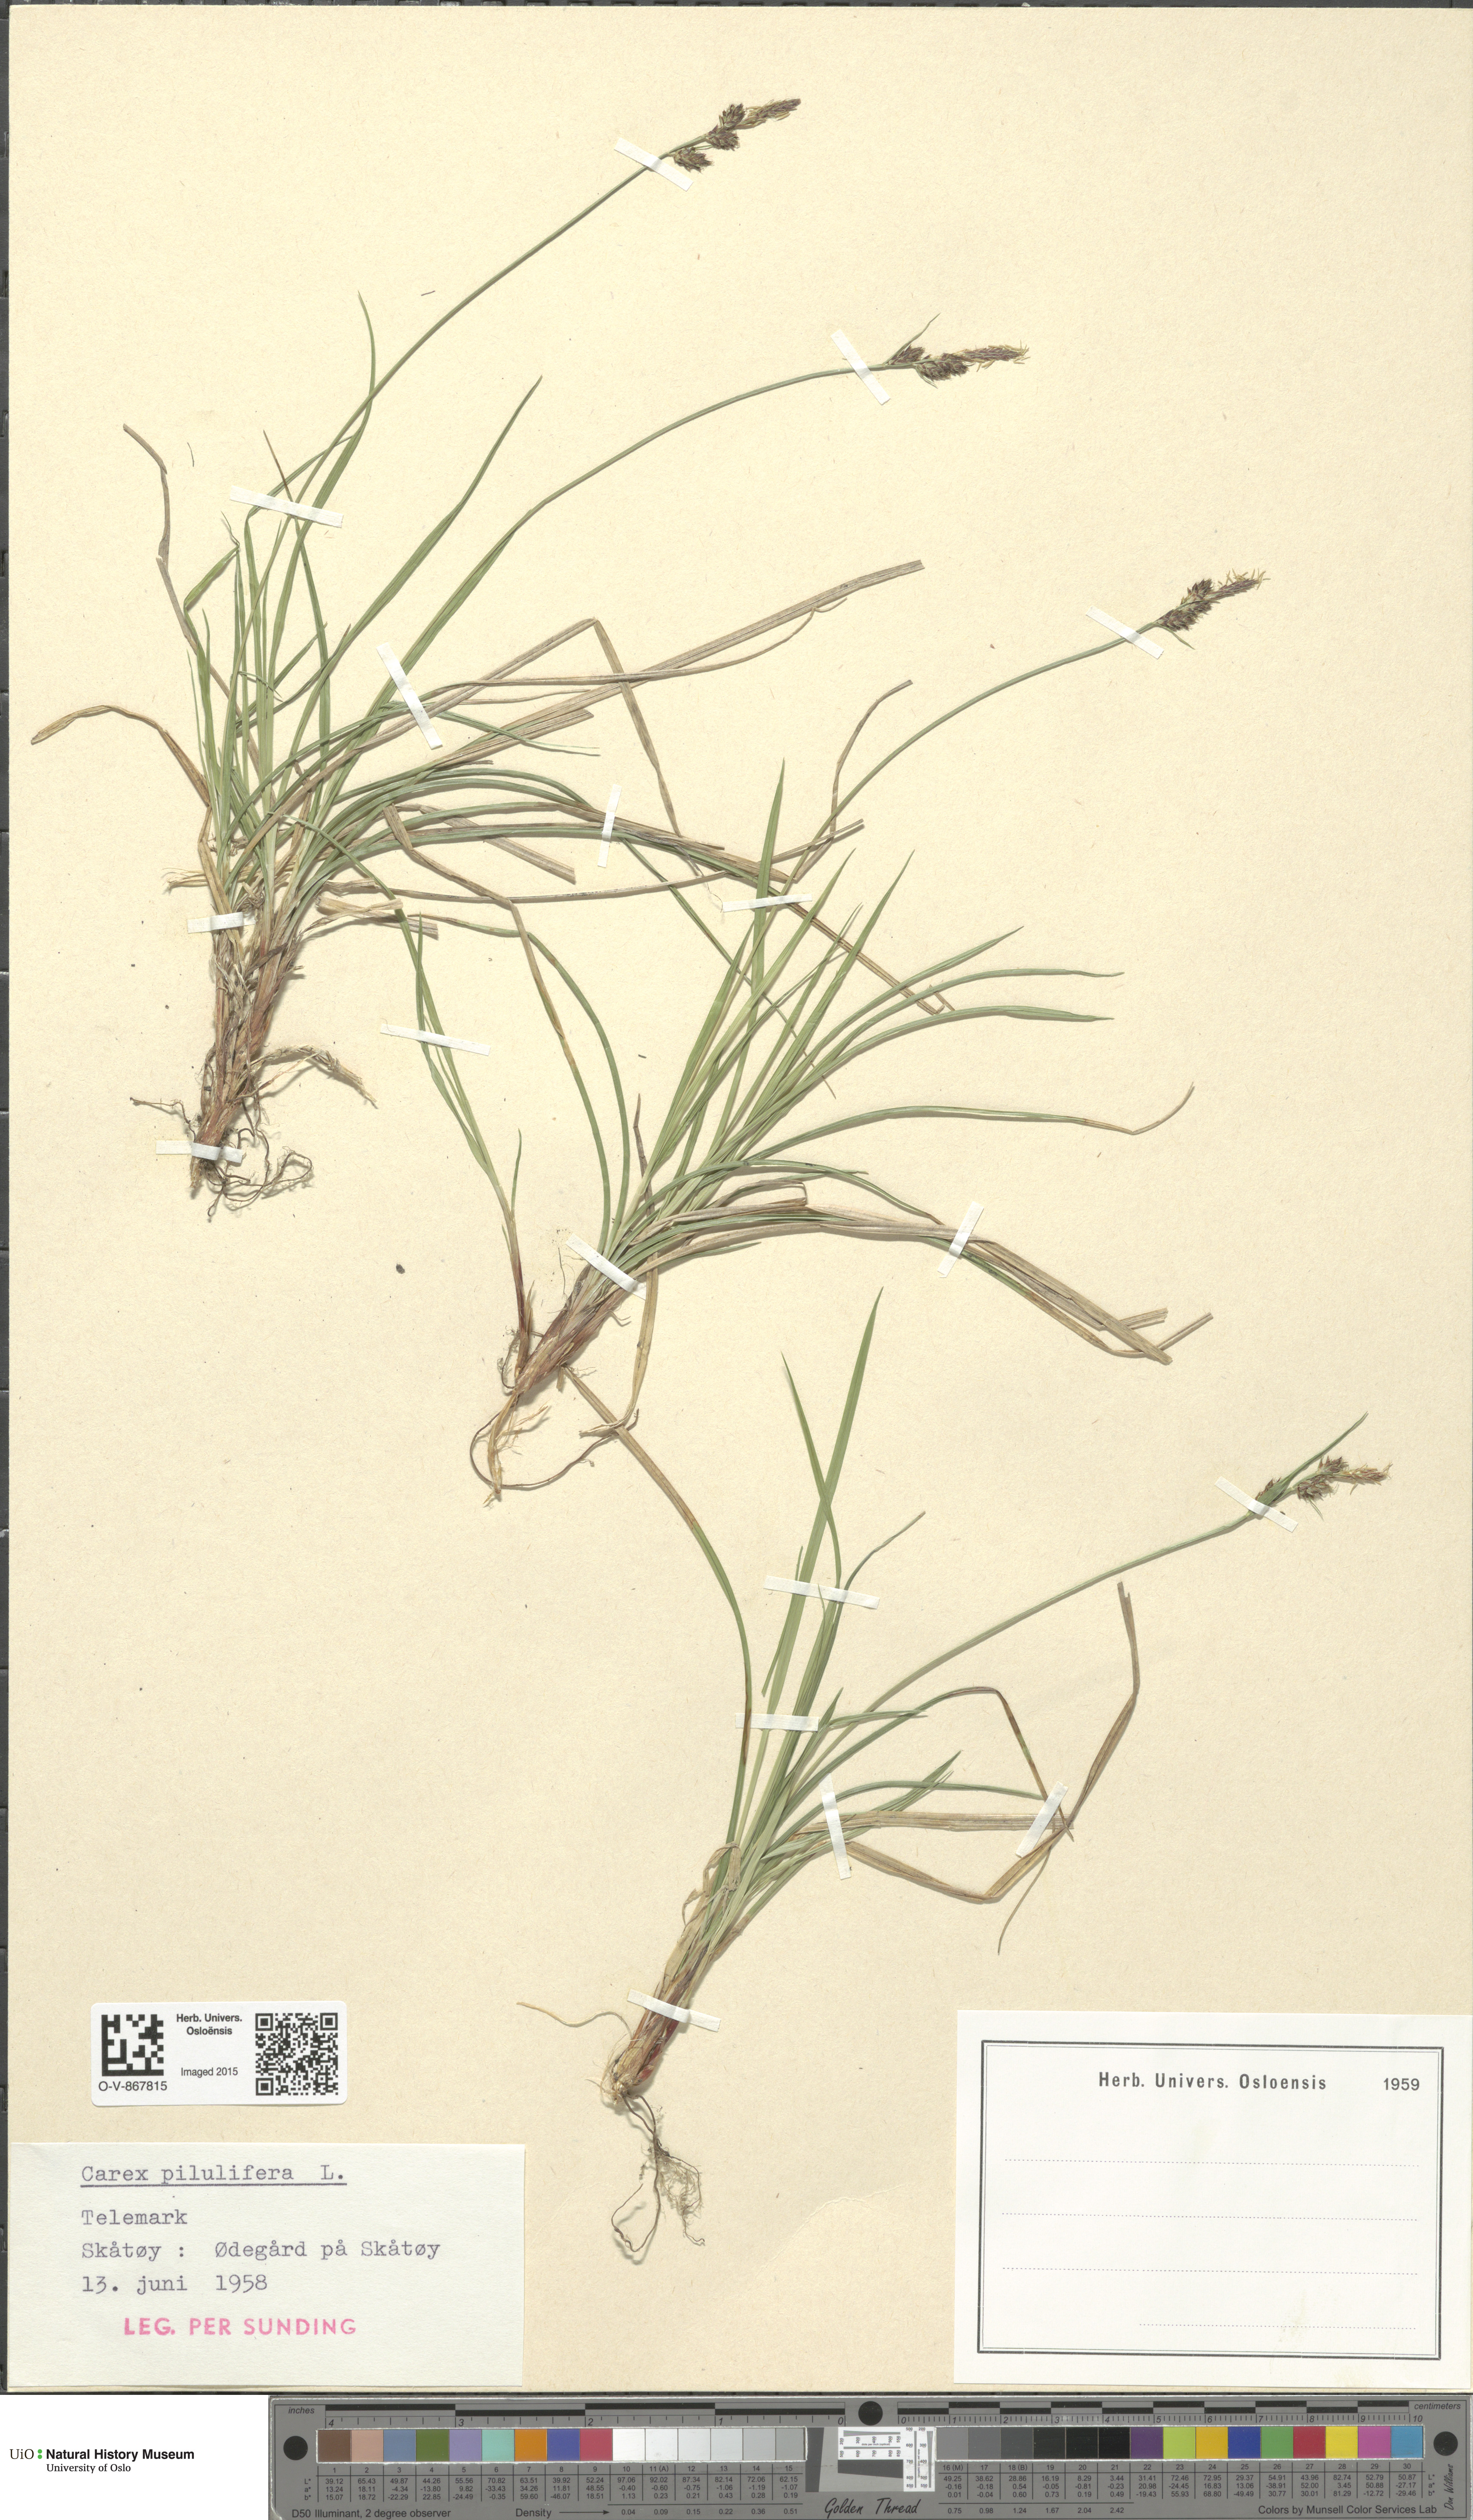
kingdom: Plantae
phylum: Tracheophyta
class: Liliopsida
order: Poales
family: Cyperaceae
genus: Carex
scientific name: Carex pilulifera
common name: Pill sedge
